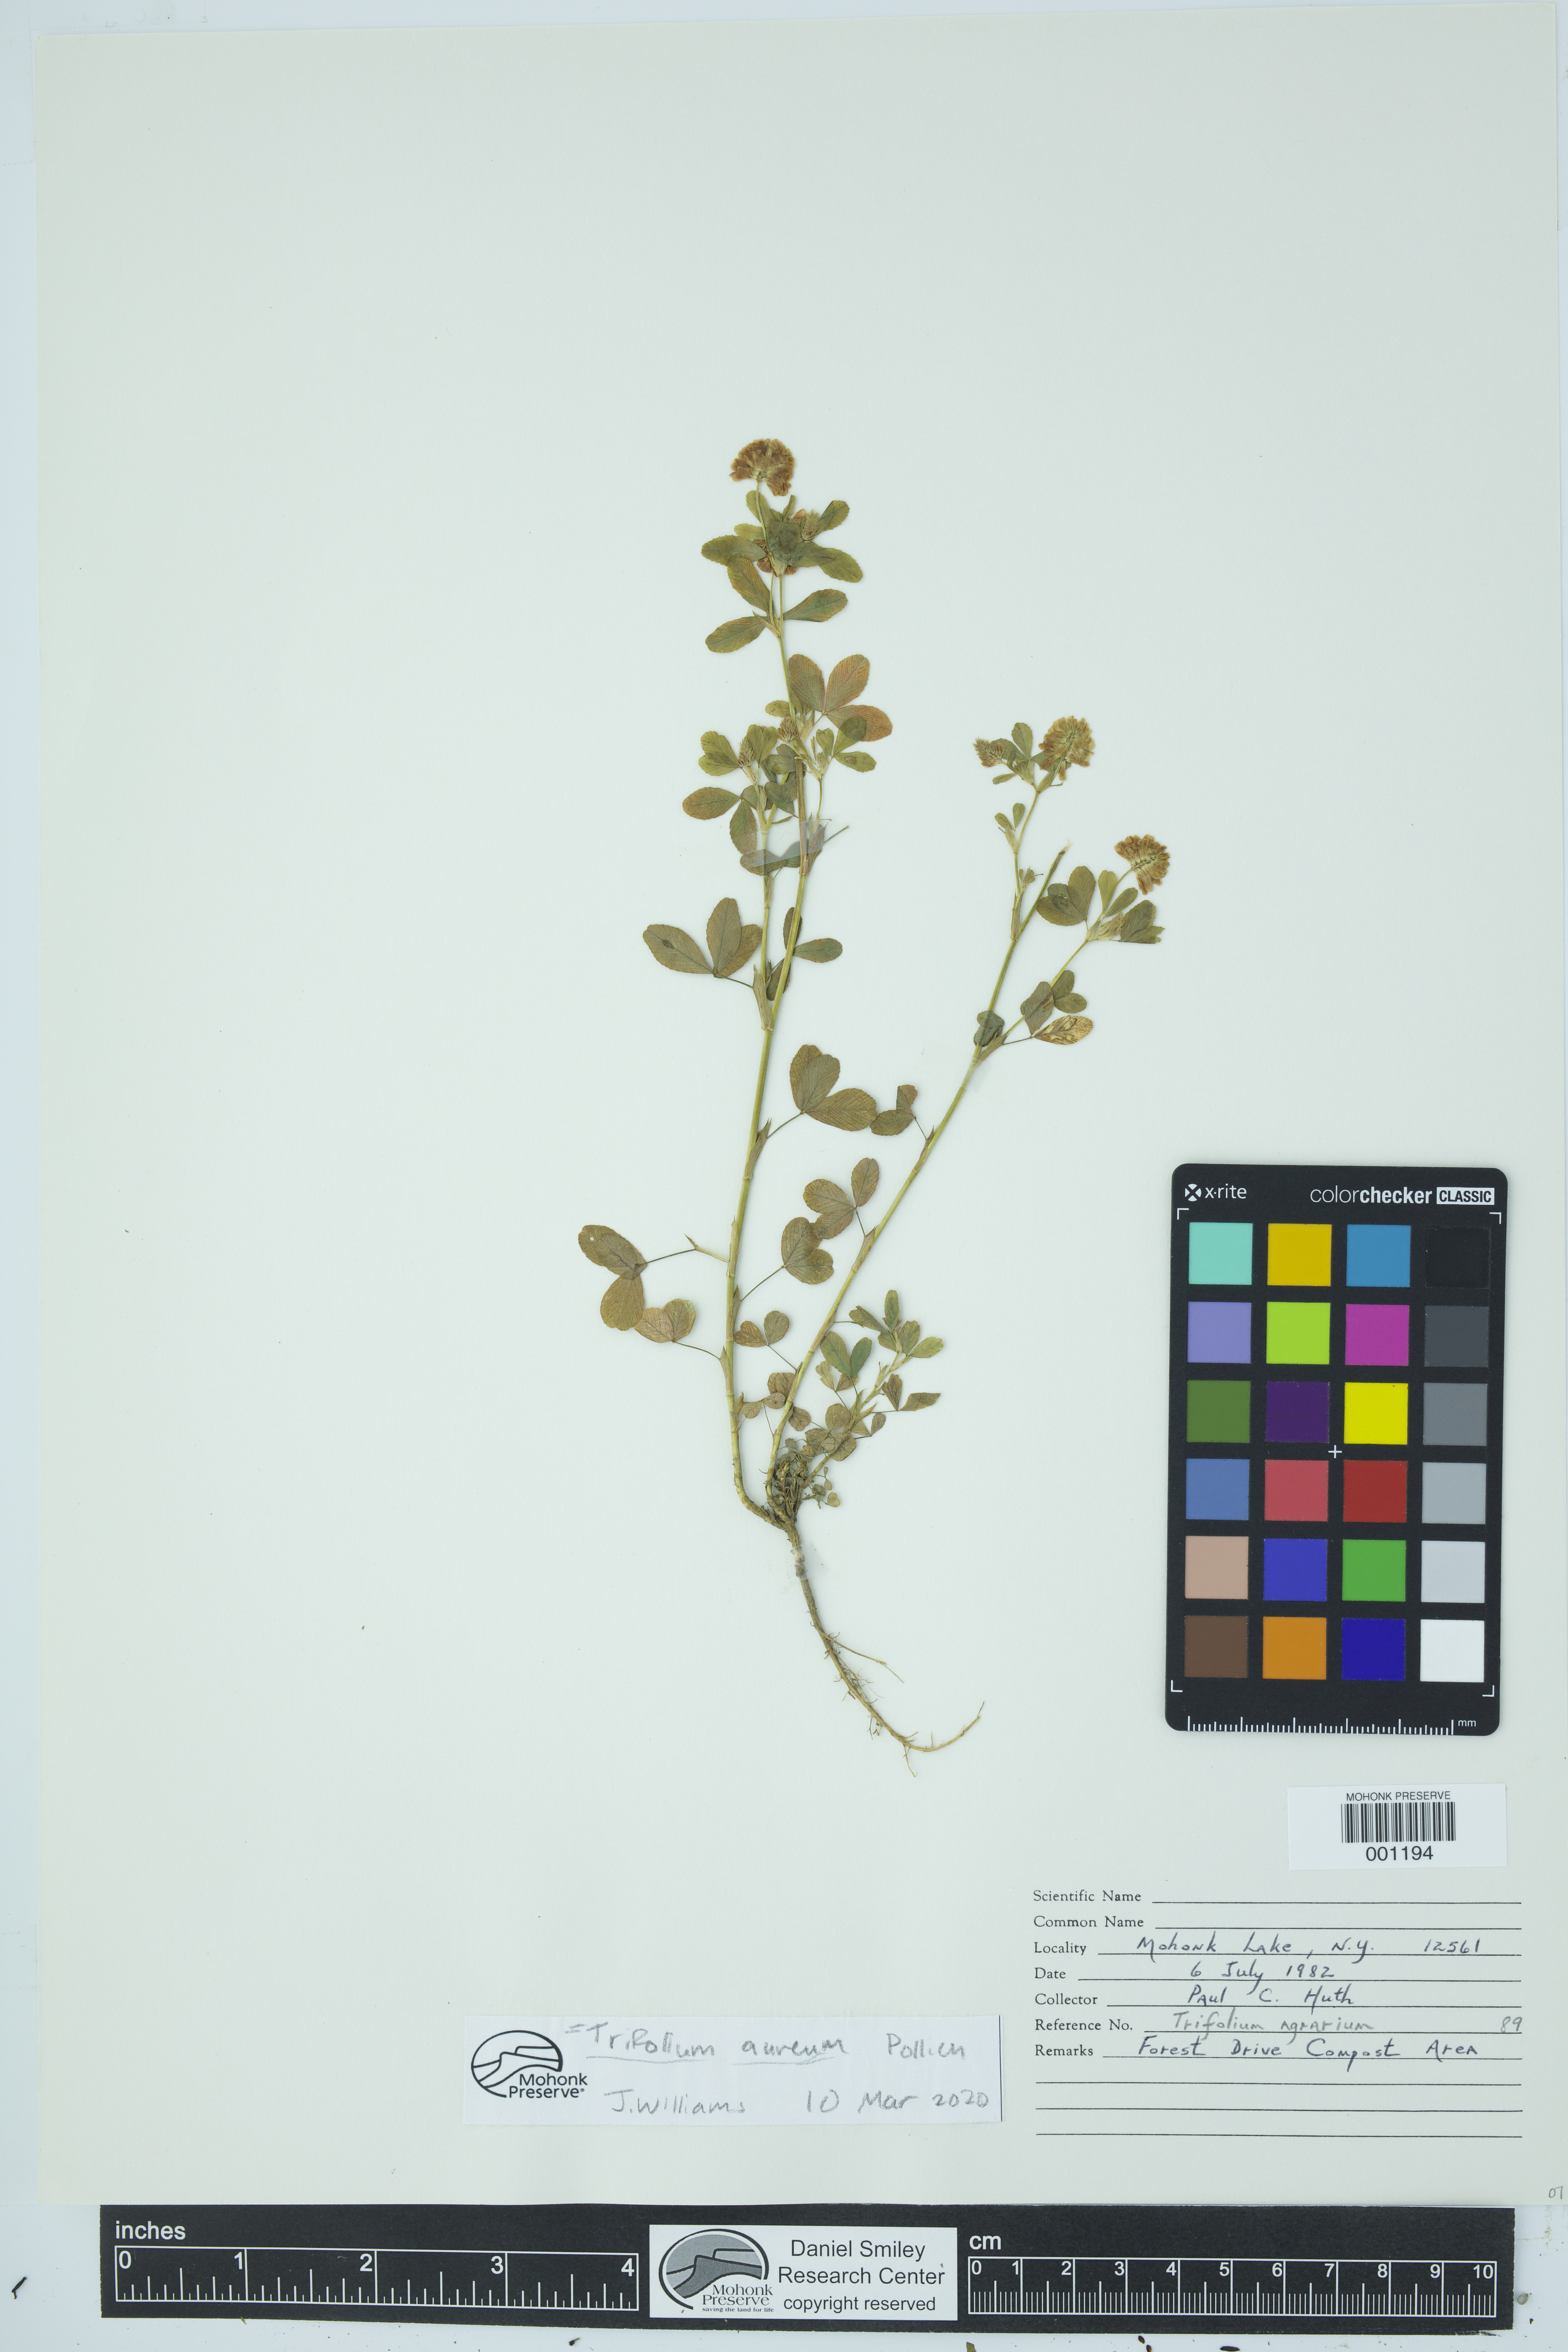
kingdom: Plantae
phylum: Tracheophyta
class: Magnoliopsida
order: Fabales
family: Fabaceae
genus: Trifolium
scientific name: Trifolium aureum
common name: Golden clover
